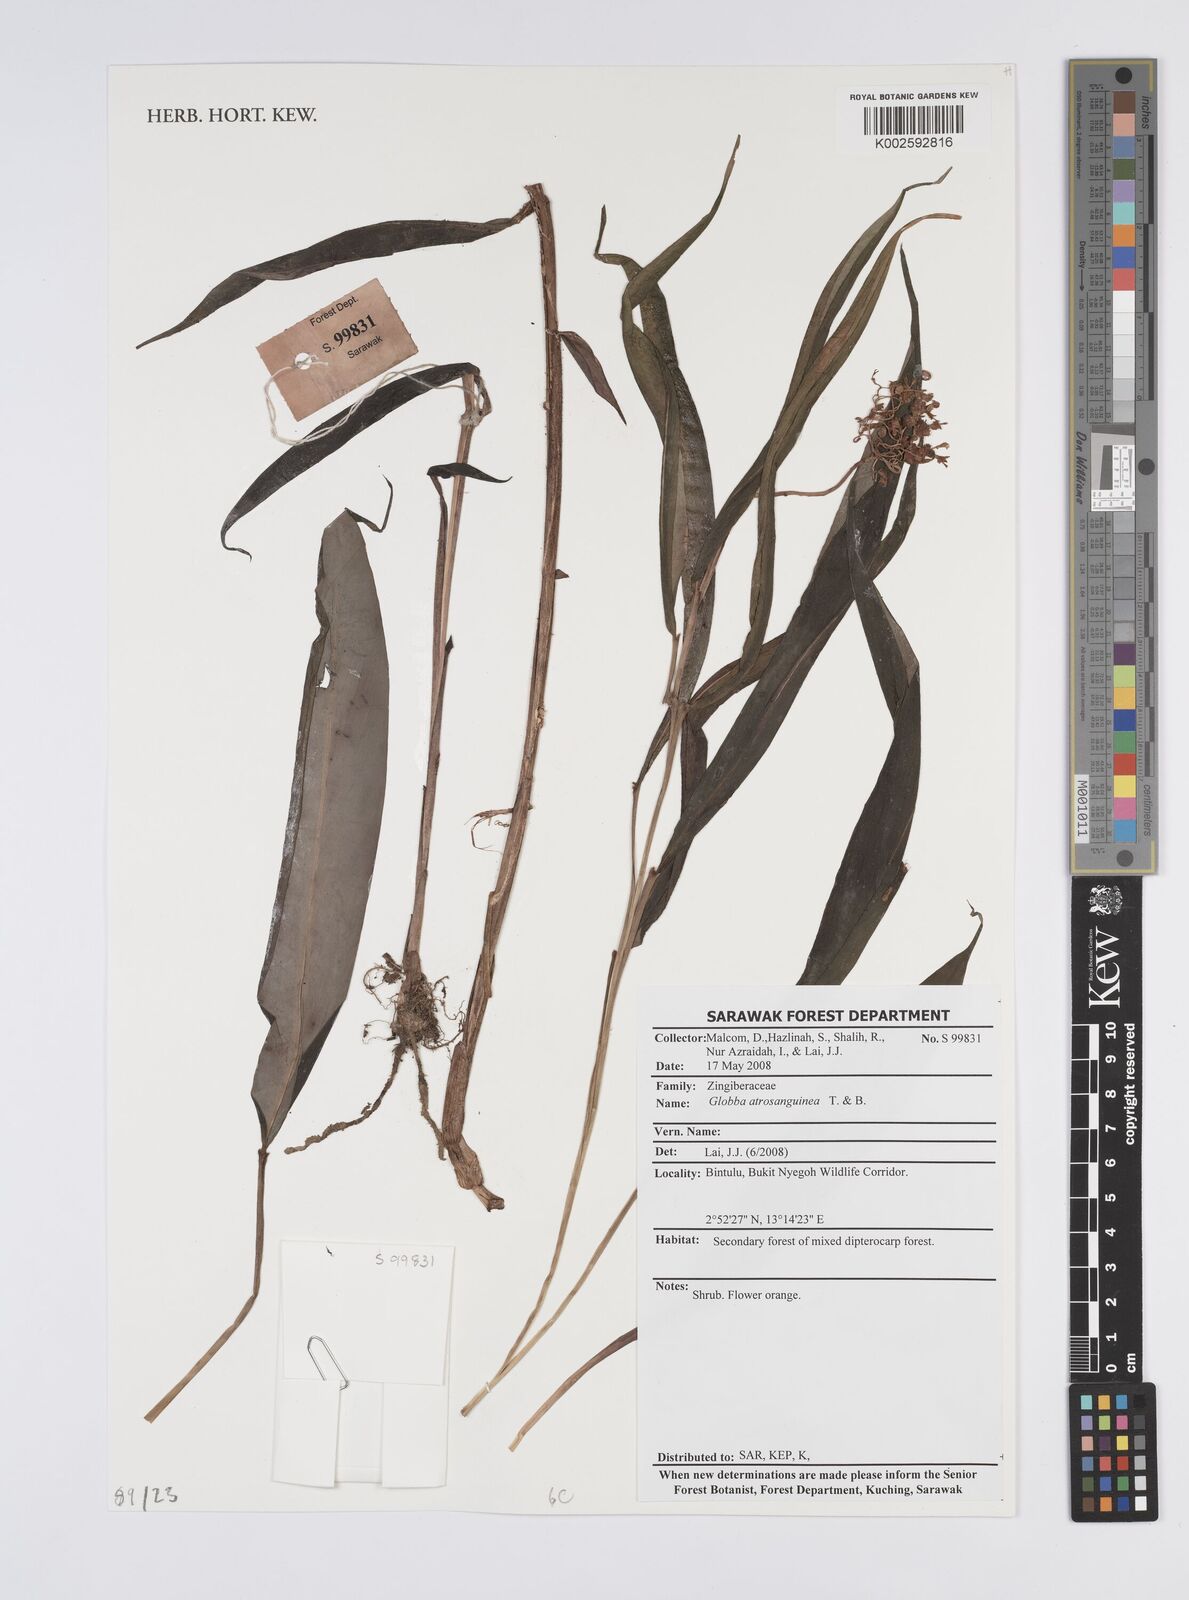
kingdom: Plantae
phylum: Tracheophyta
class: Liliopsida
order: Zingiberales
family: Zingiberaceae
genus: Globba
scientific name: Globba atrosanguinea
